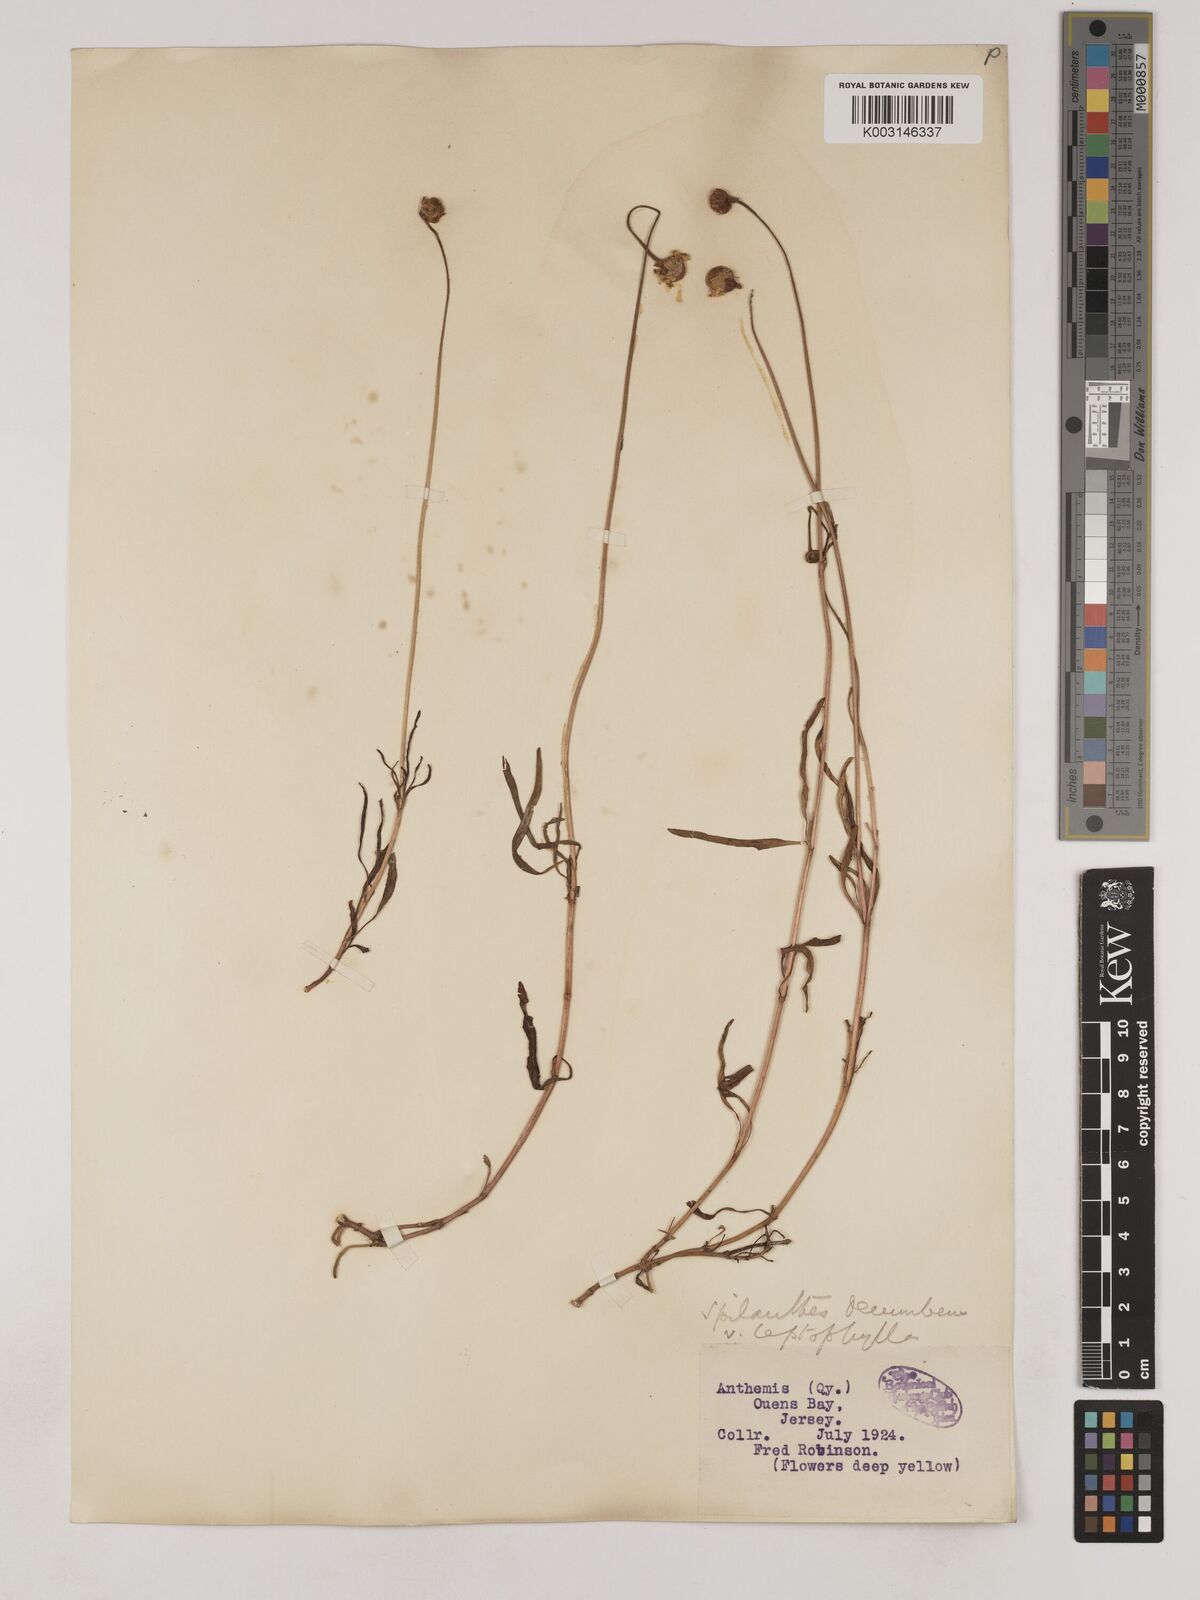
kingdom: Plantae
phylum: Tracheophyta
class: Magnoliopsida
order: Asterales
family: Asteraceae
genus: Acmella
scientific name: Acmella leptophylla
